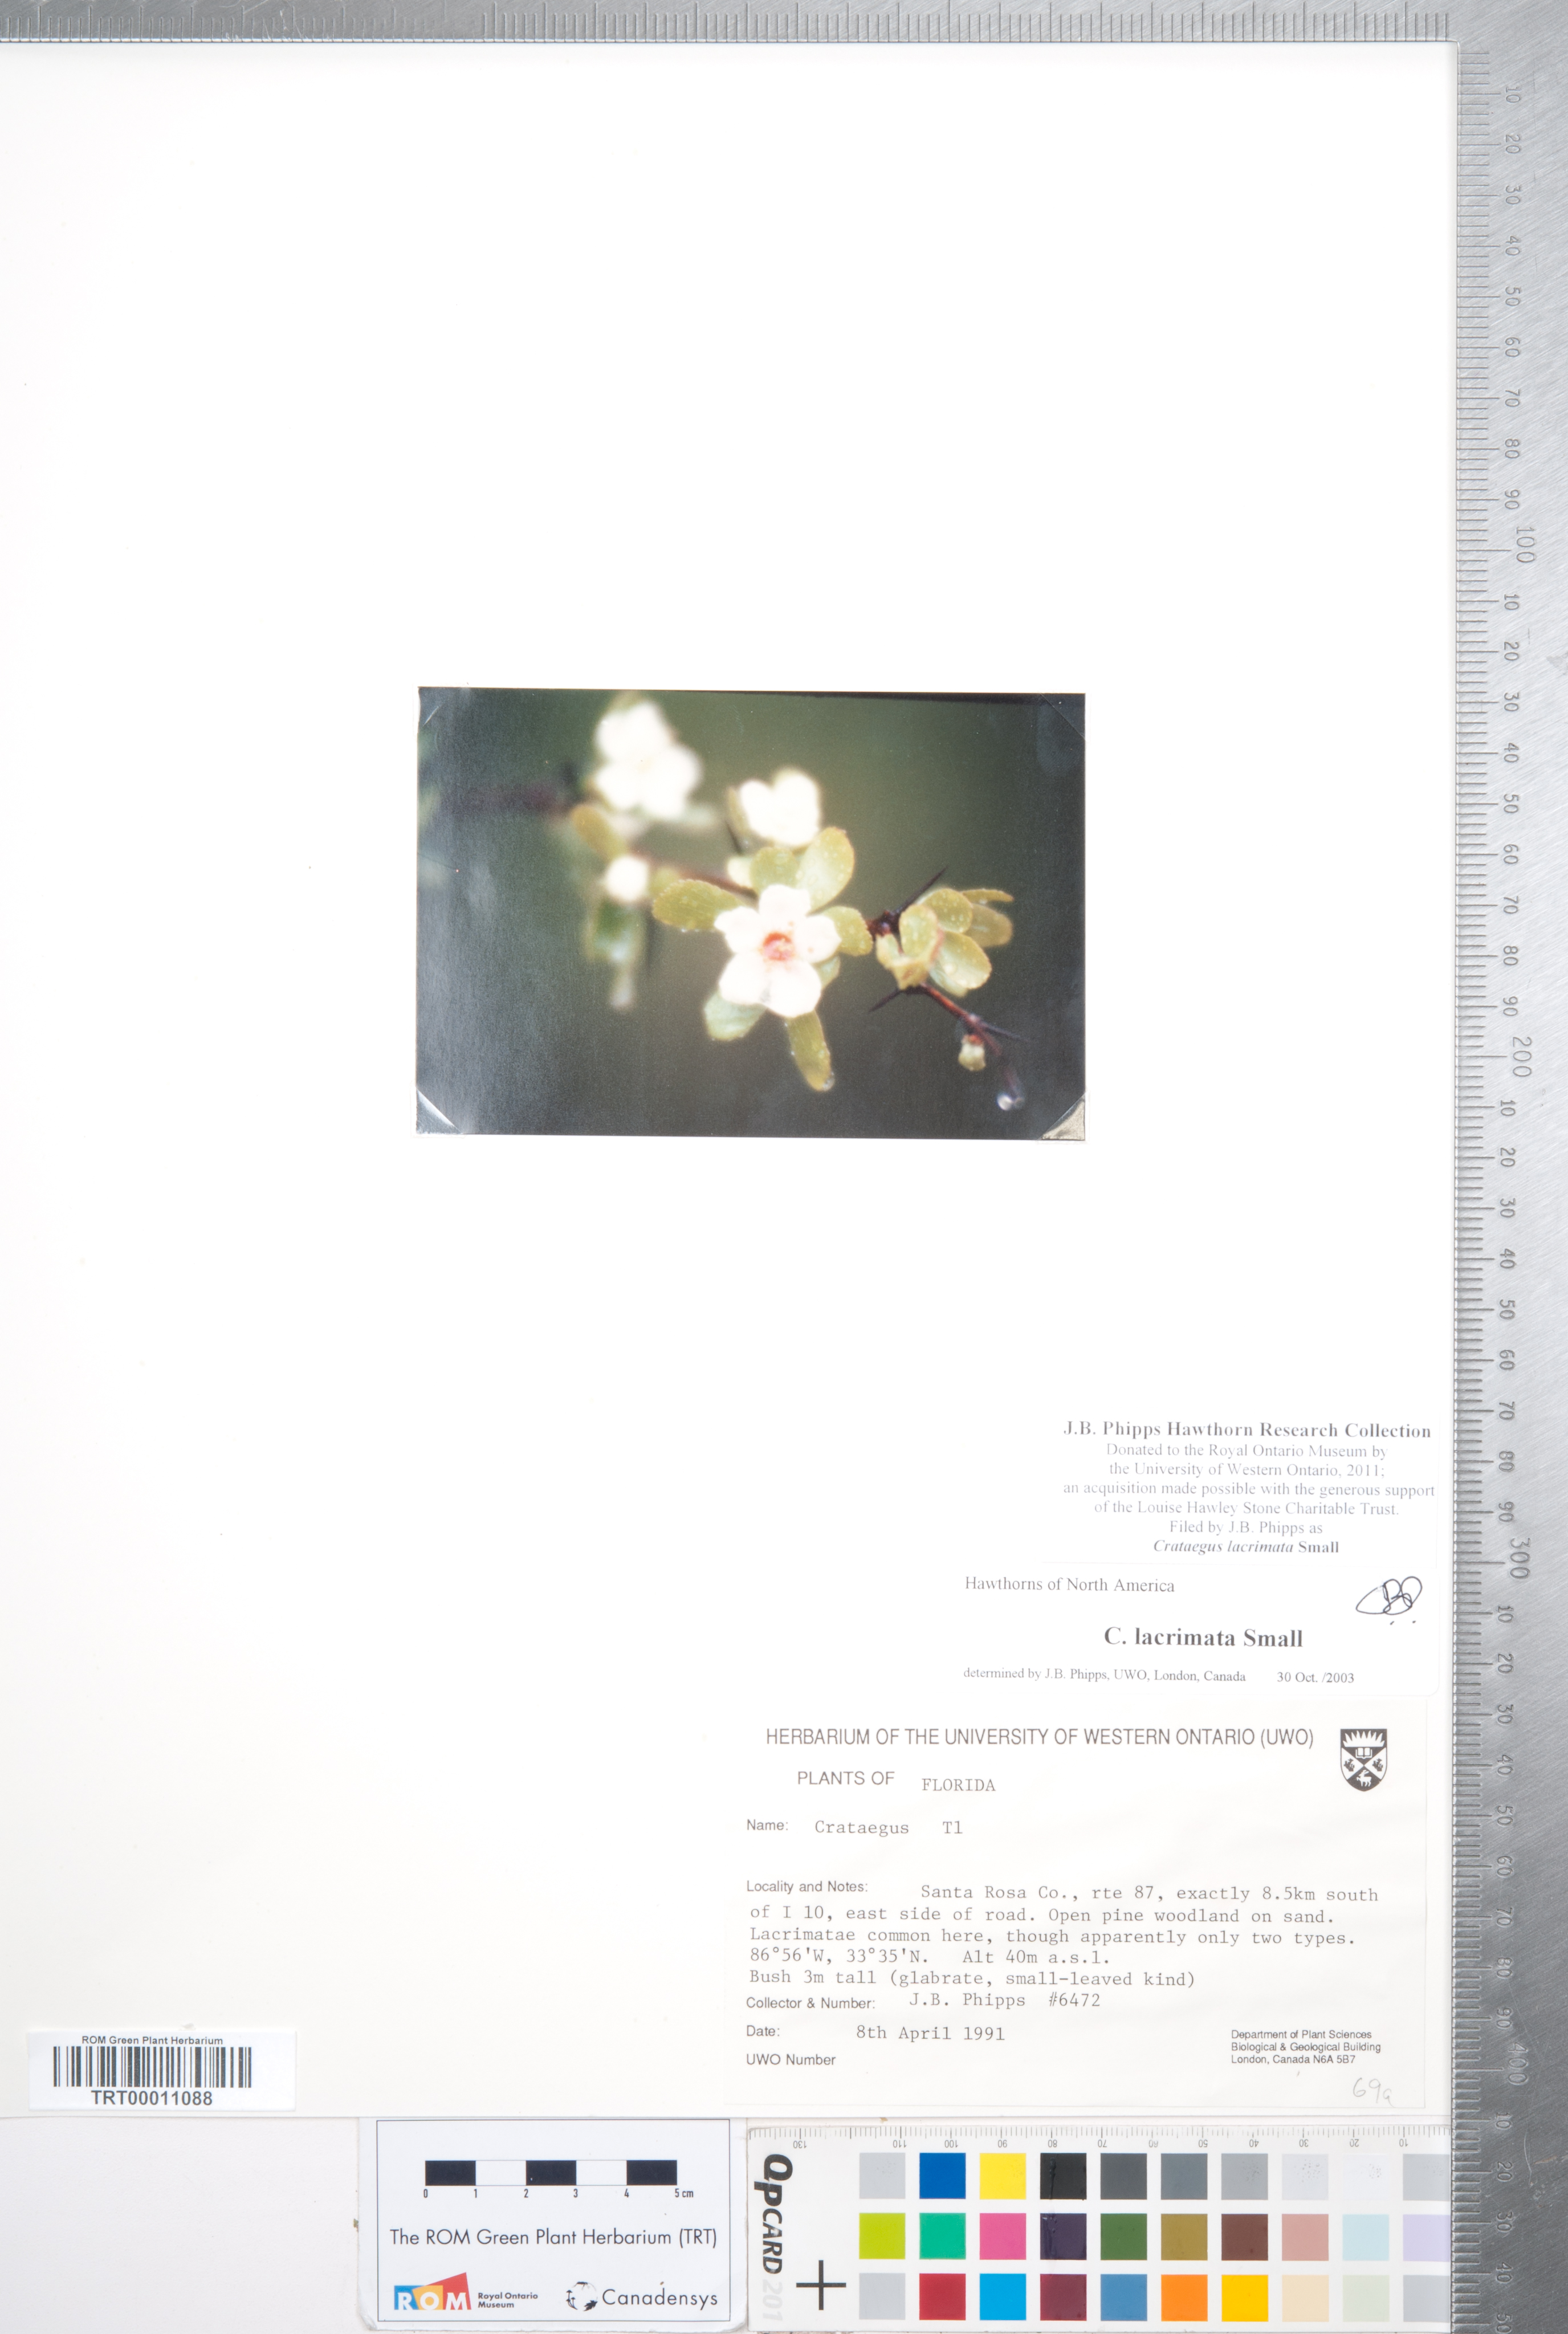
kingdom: Plantae
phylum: Tracheophyta
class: Magnoliopsida
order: Rosales
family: Rosaceae
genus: Crataegus
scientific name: Crataegus lacrimata
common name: Weeping hawthorn
